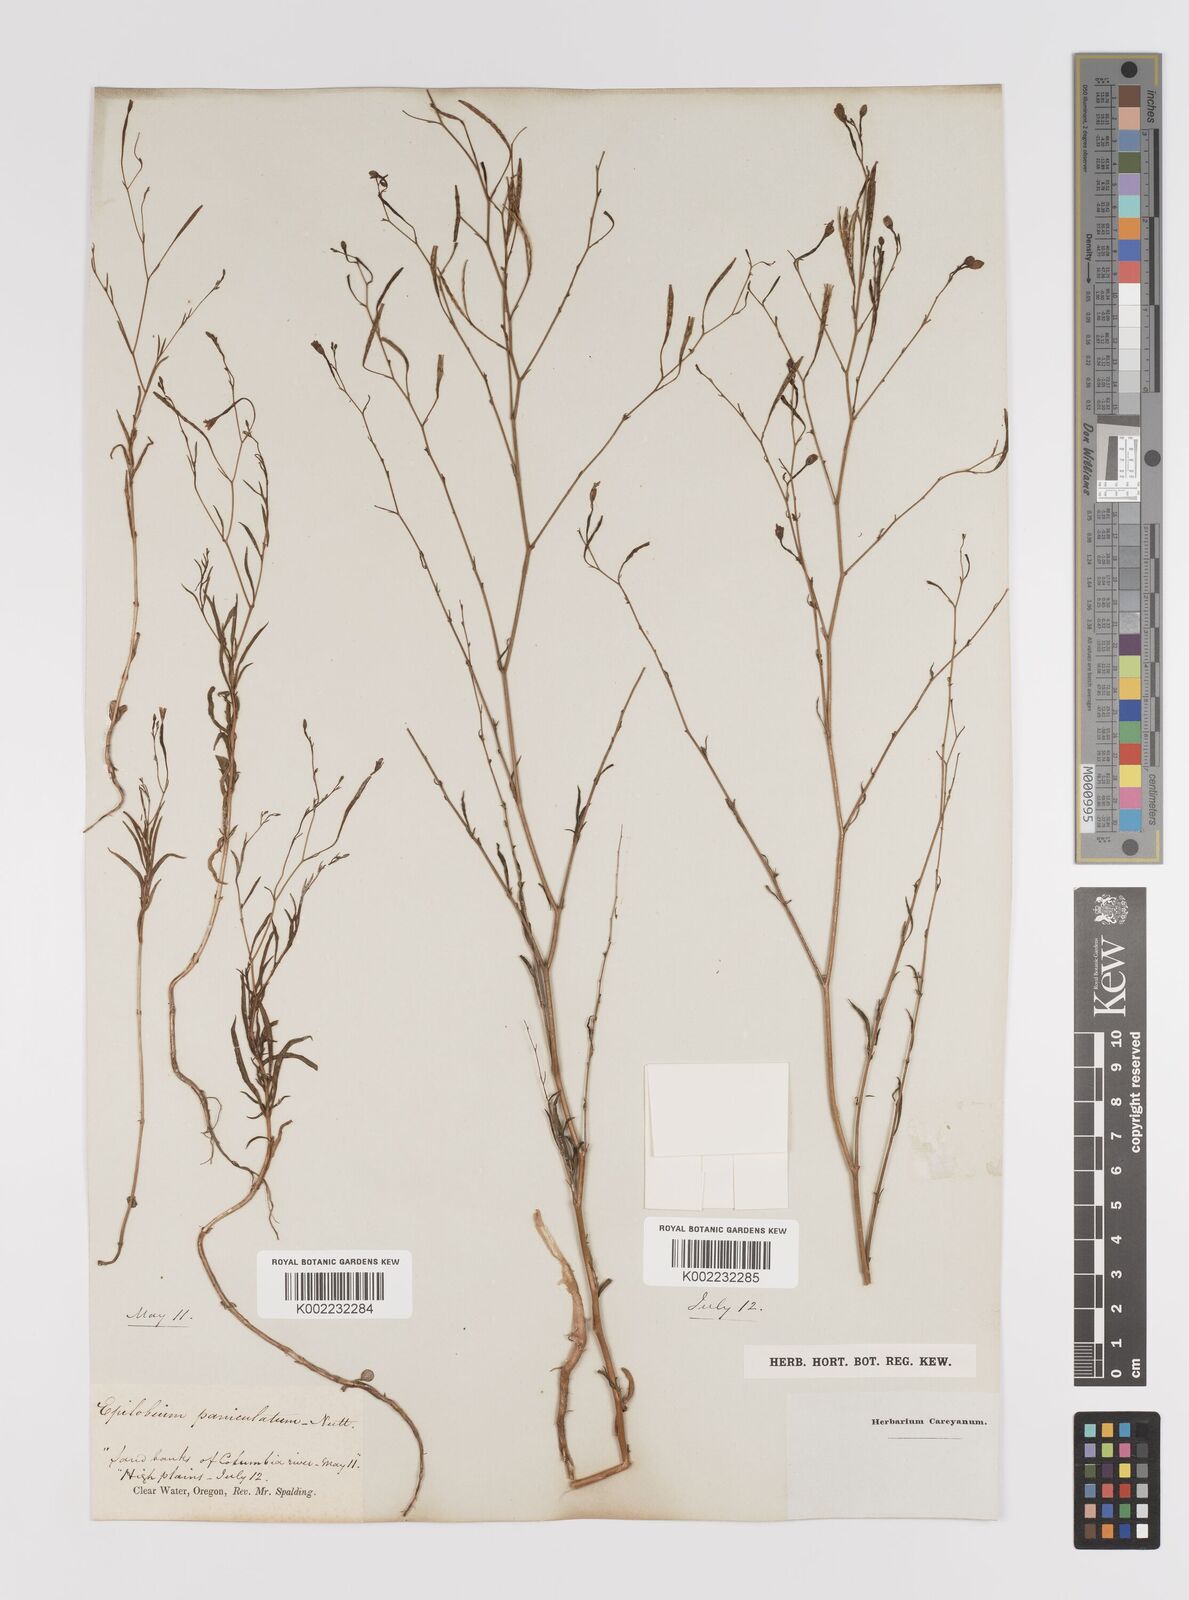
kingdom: Plantae
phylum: Tracheophyta
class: Magnoliopsida
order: Myrtales
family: Onagraceae
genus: Epilobium
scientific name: Epilobium
